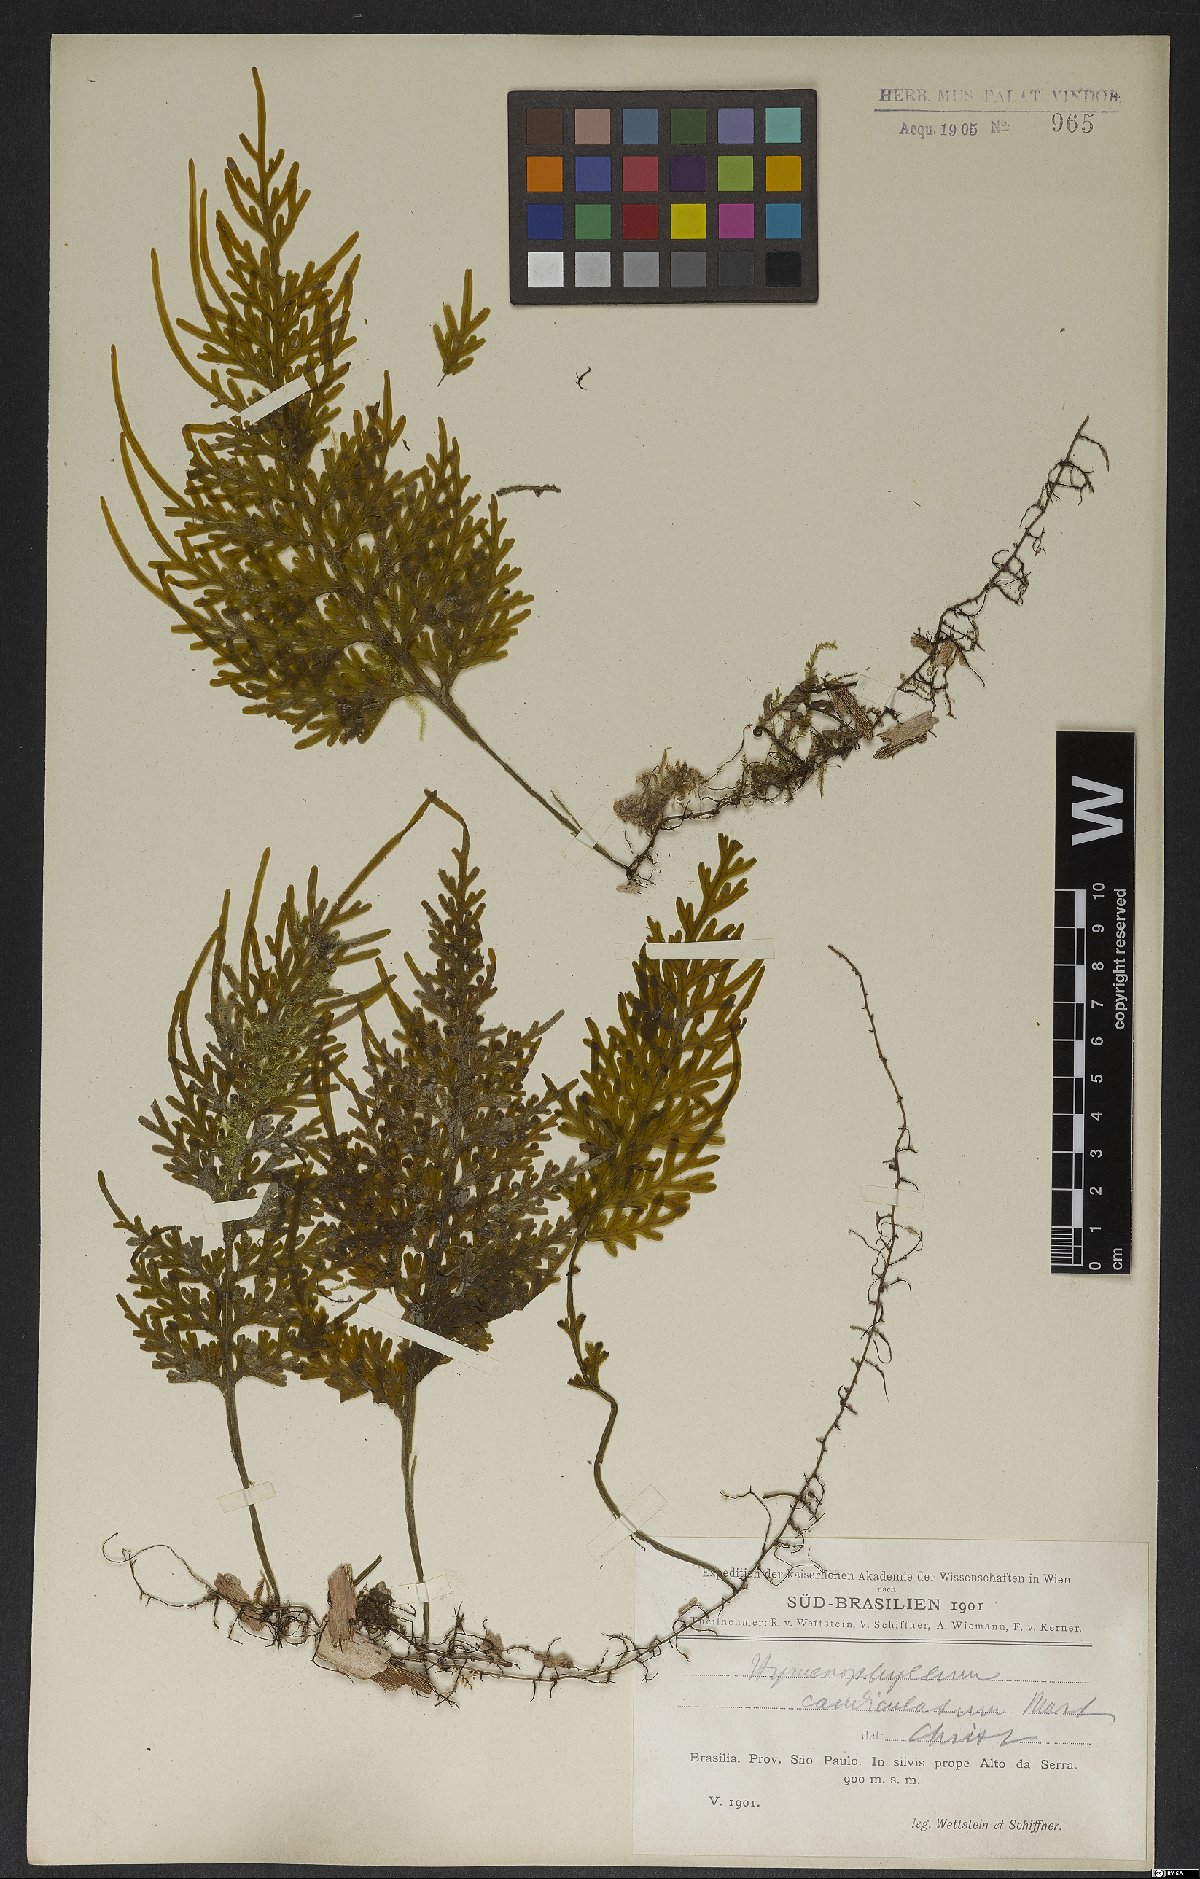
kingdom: Plantae
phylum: Tracheophyta
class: Polypodiopsida
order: Hymenophyllales
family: Hymenophyllaceae
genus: Hymenophyllum
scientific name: Hymenophyllum caudiculatum
